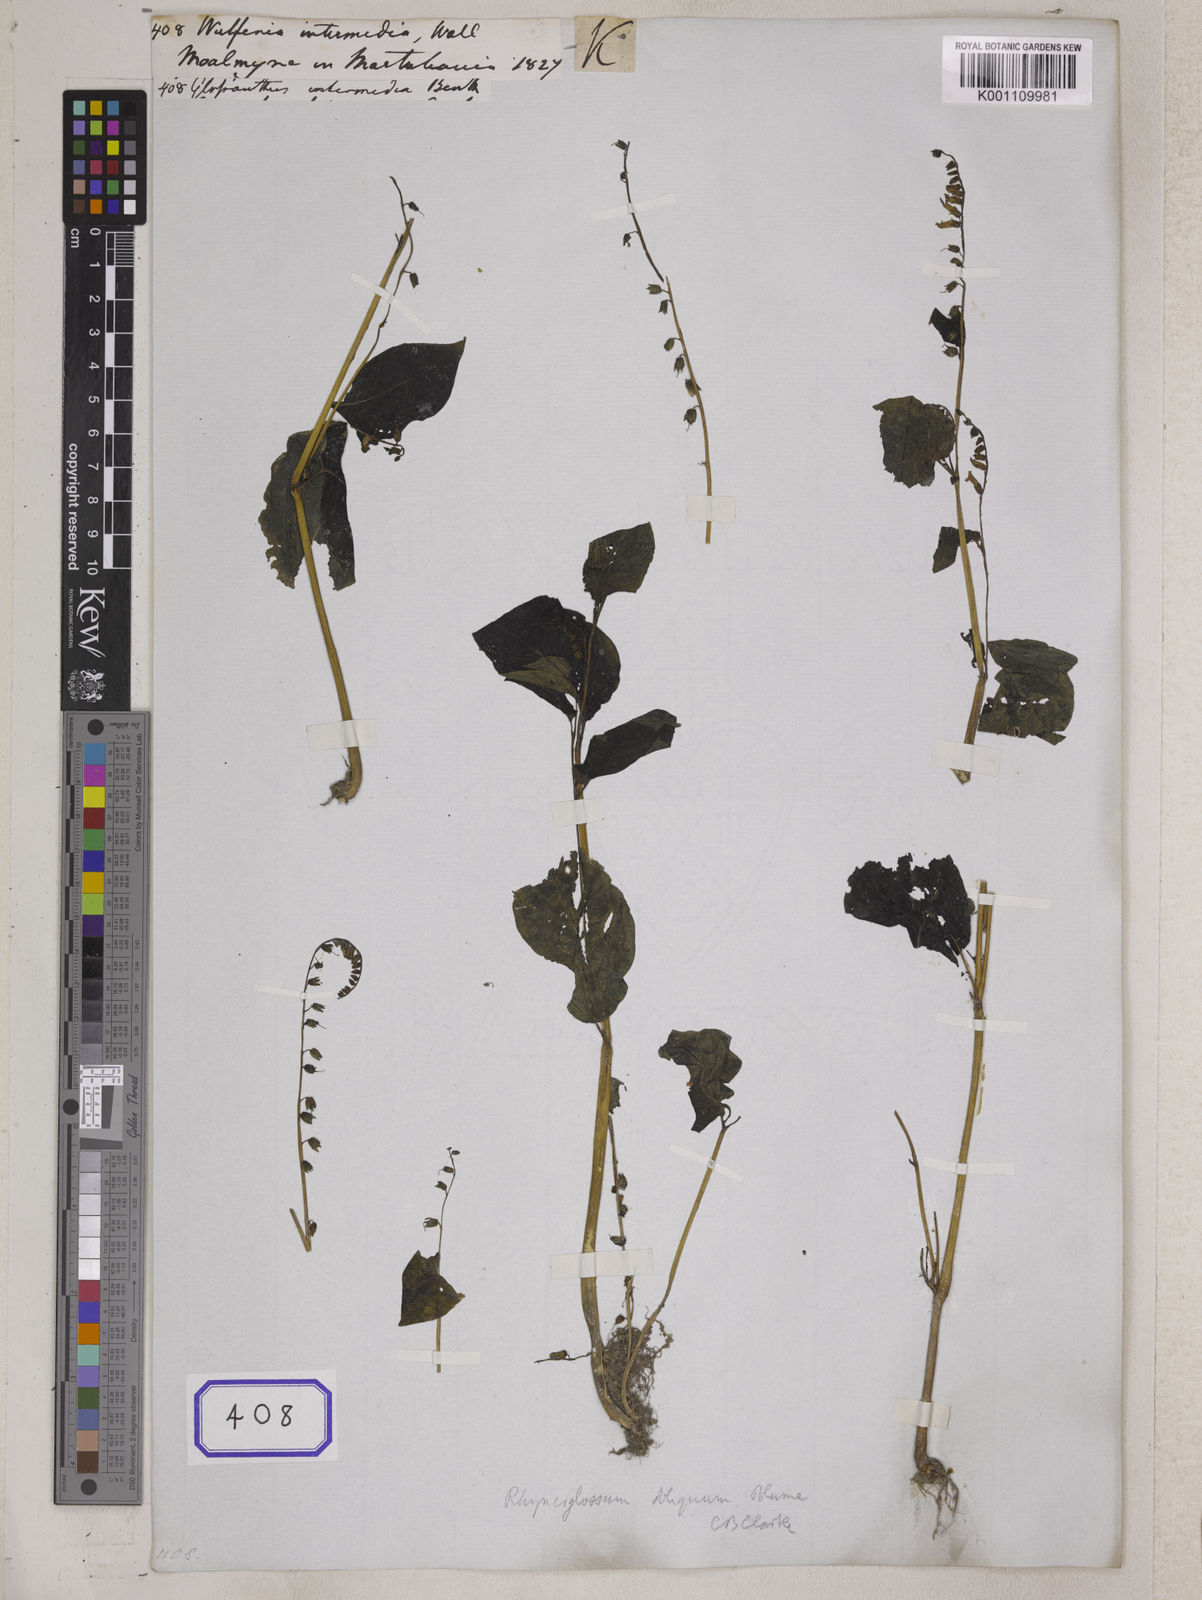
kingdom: Plantae
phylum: Tracheophyta
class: Magnoliopsida
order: Lamiales
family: Gesneriaceae
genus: Rhynchoglossum
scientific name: Rhynchoglossum
